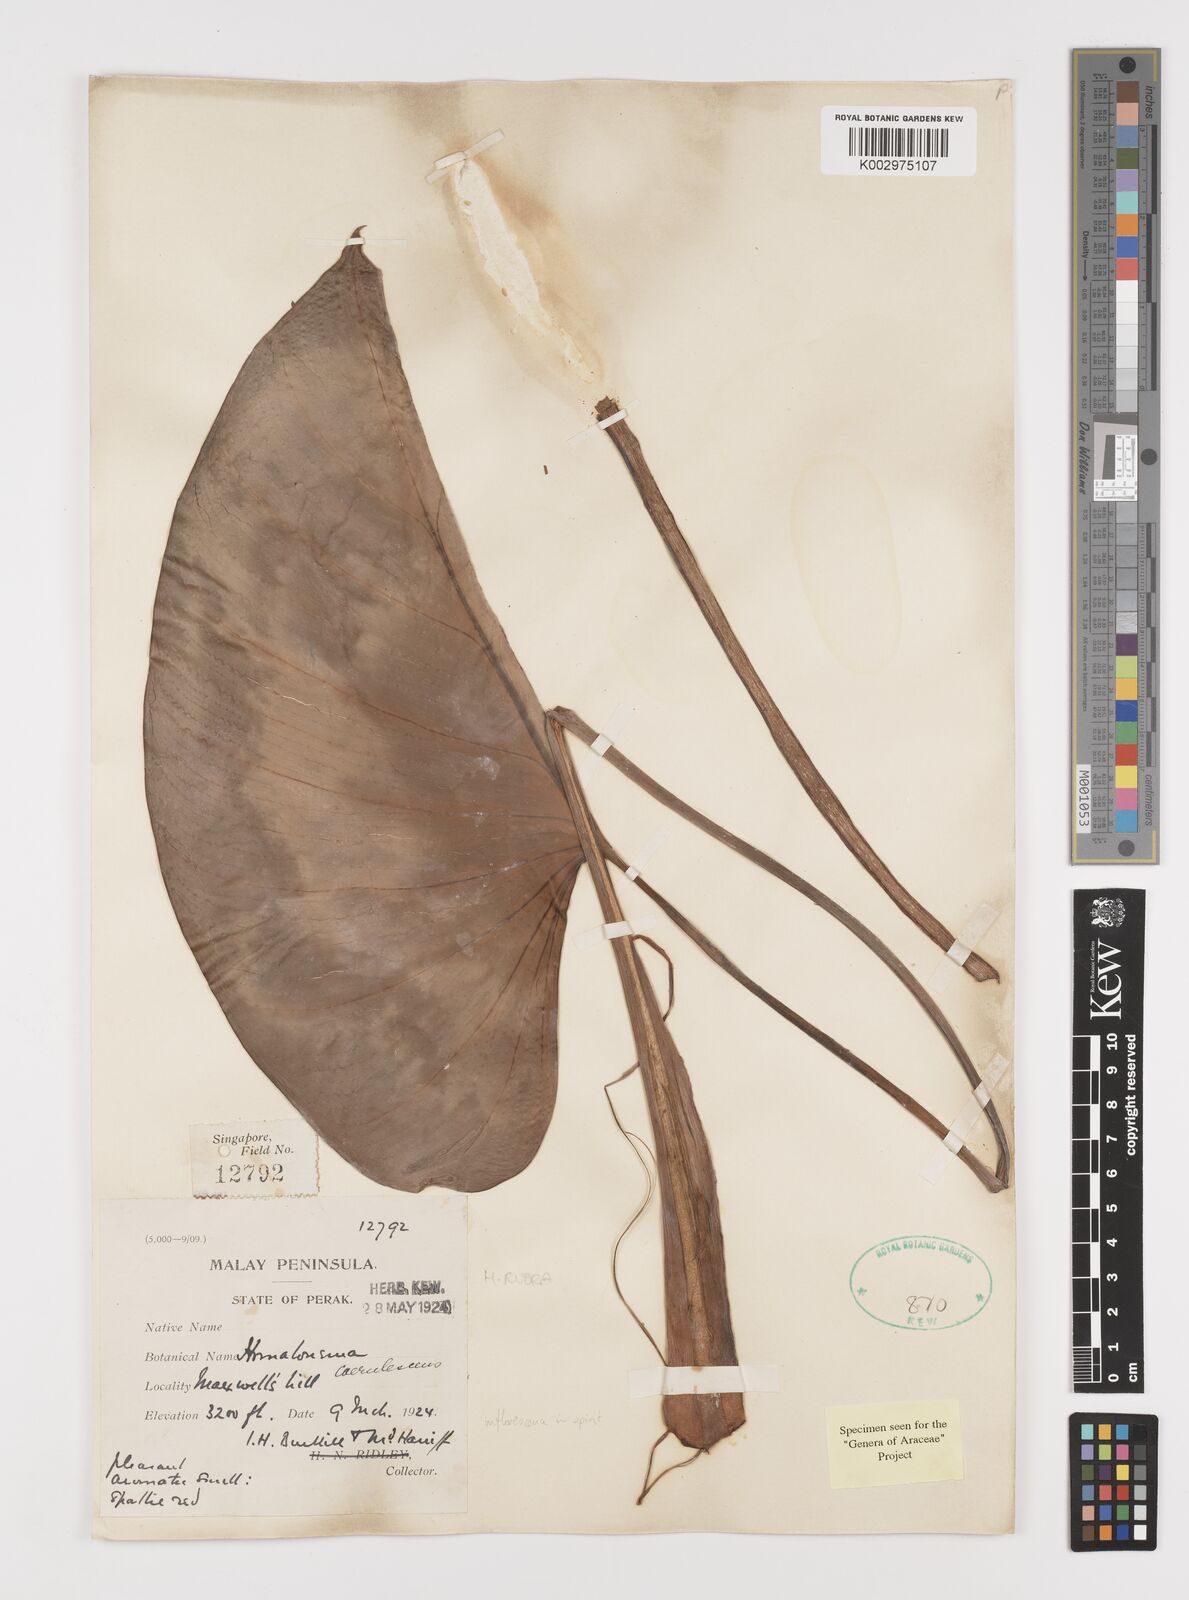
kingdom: Plantae
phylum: Tracheophyta
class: Liliopsida
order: Alismatales
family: Araceae
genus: Homalomena
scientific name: Homalomena pendula
